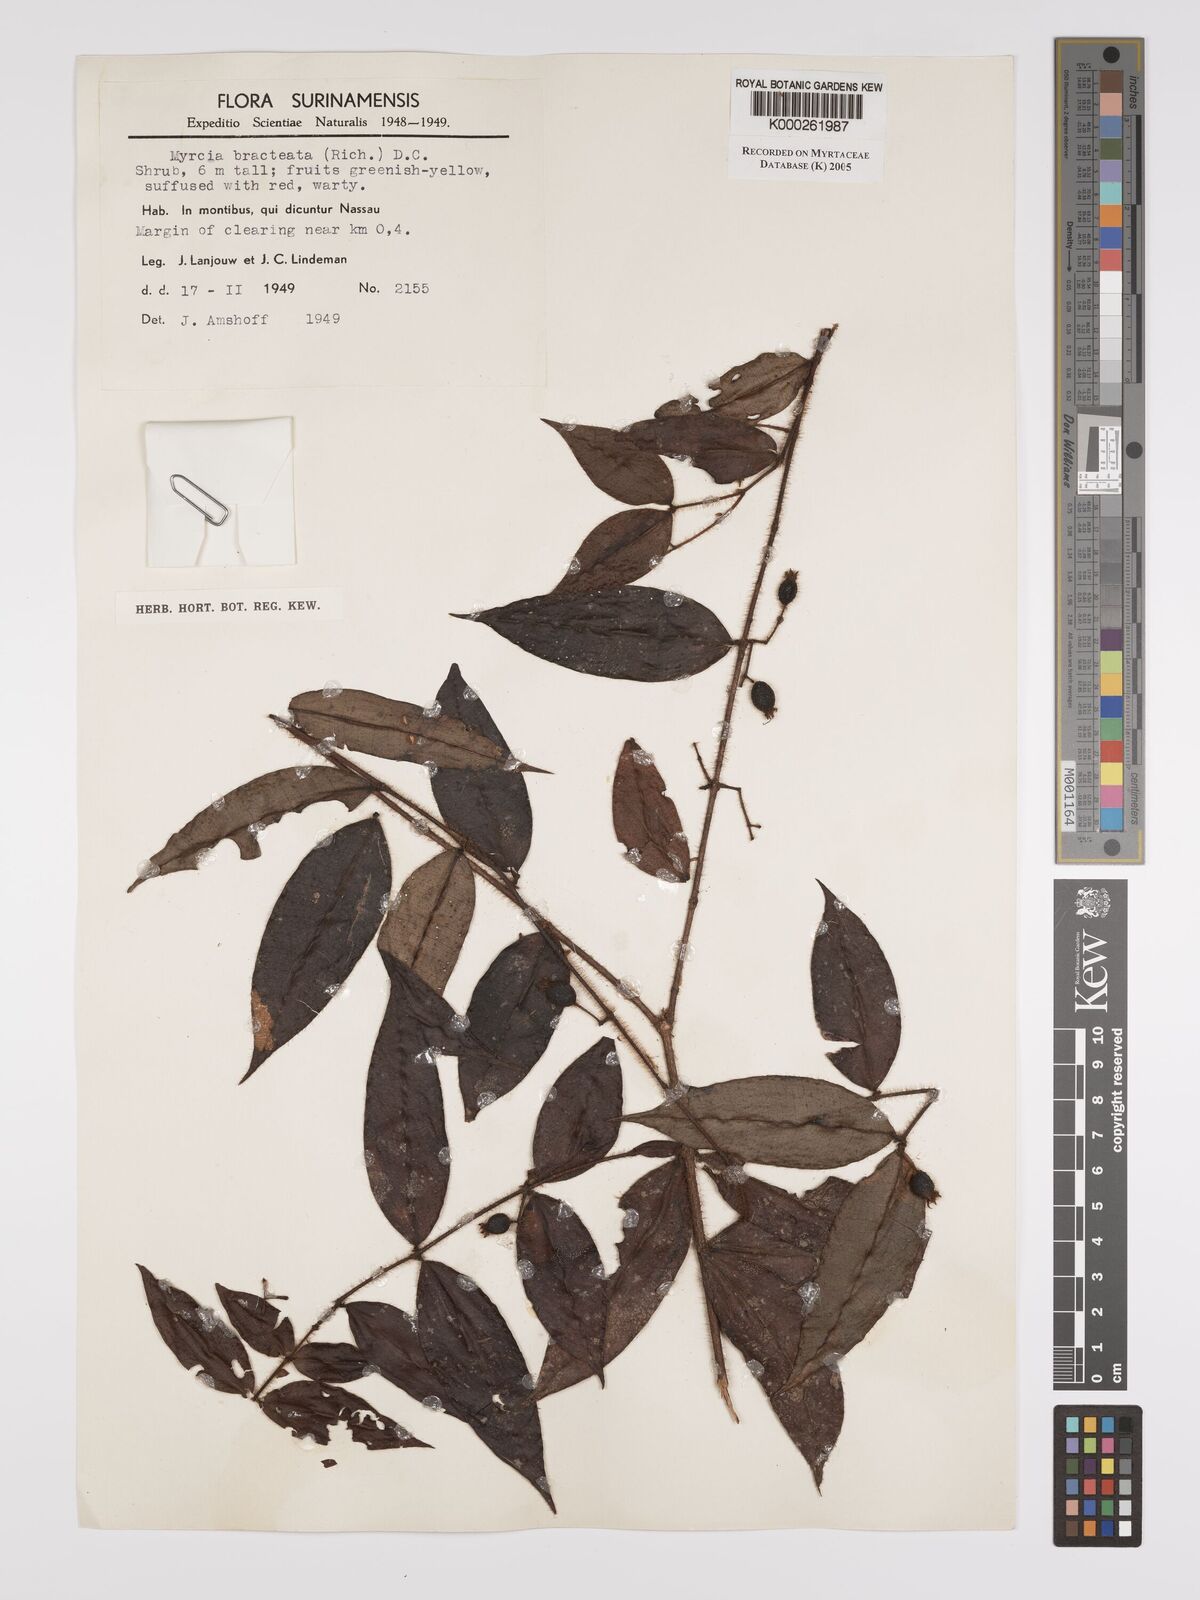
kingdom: Plantae
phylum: Tracheophyta
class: Magnoliopsida
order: Myrtales
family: Myrtaceae
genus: Myrcia
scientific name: Myrcia bracteata
